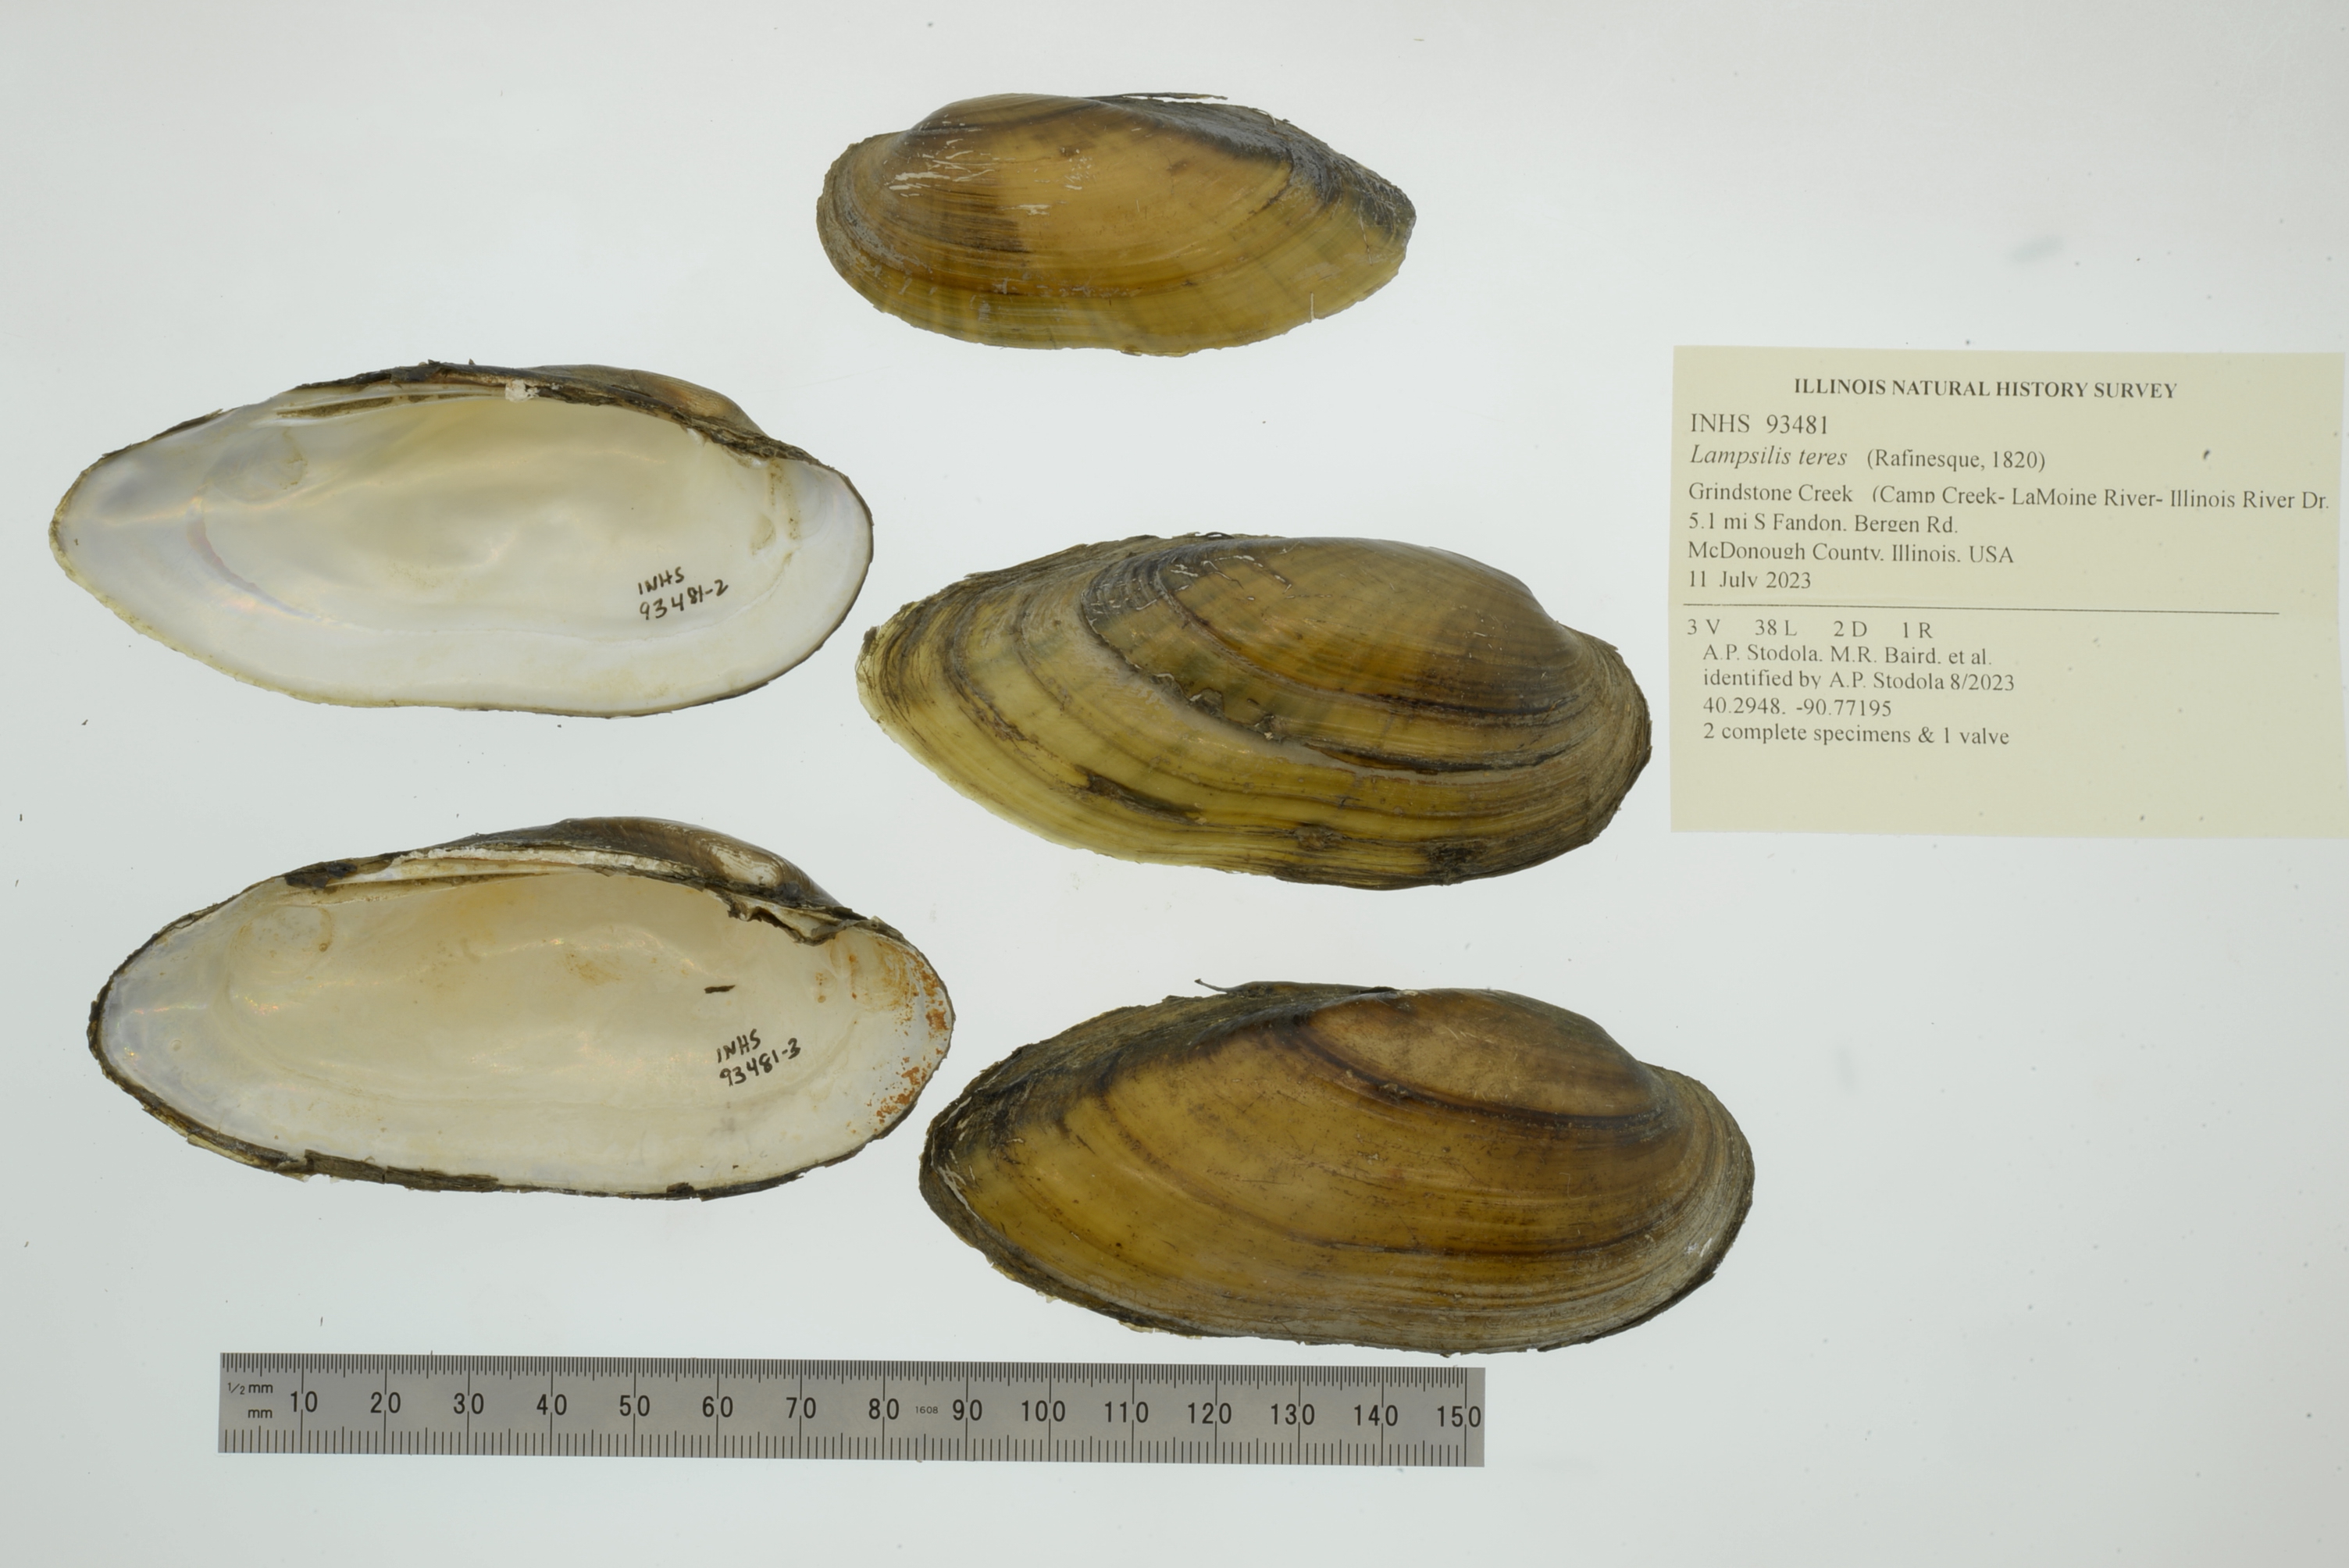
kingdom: Animalia
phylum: Mollusca
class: Bivalvia
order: Unionida
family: Unionidae
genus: Lampsilis
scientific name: Lampsilis teres
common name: Yellow sandshell
